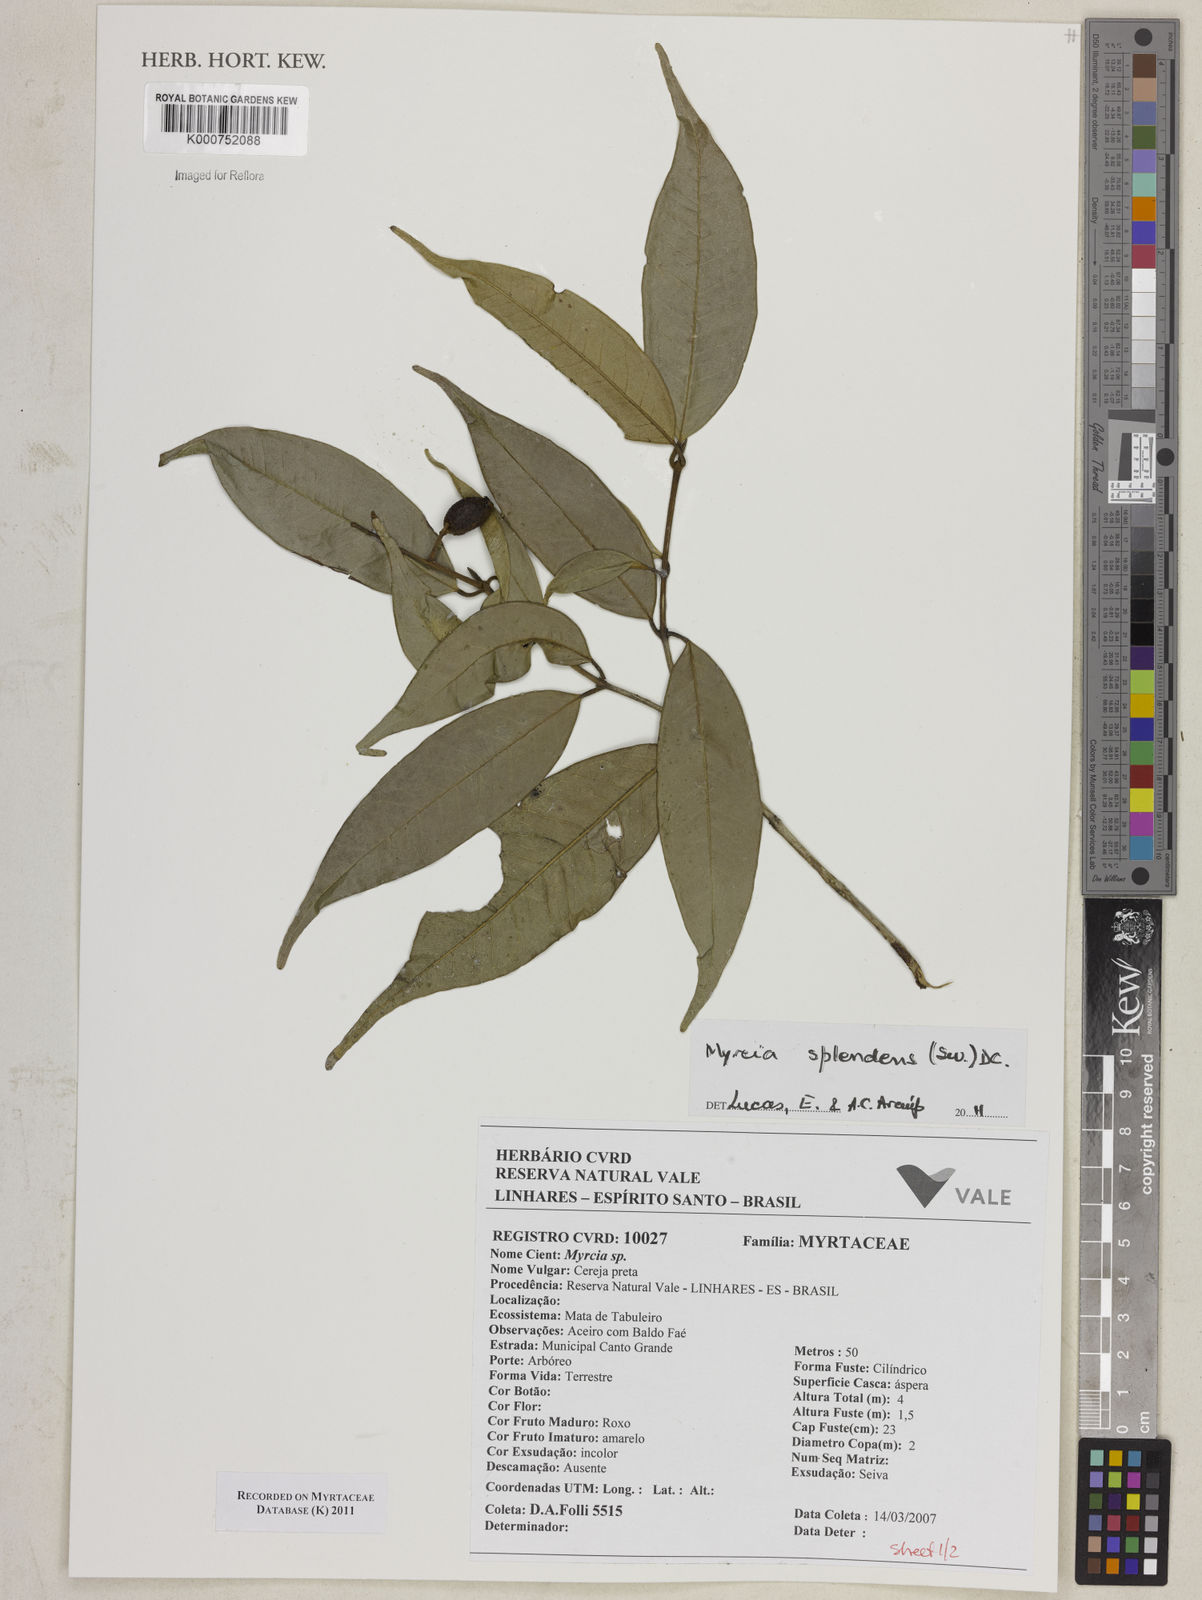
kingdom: Plantae
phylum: Tracheophyta
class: Magnoliopsida
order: Myrtales
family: Myrtaceae
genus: Myrcia
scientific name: Myrcia splendens
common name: Surinam cherry
